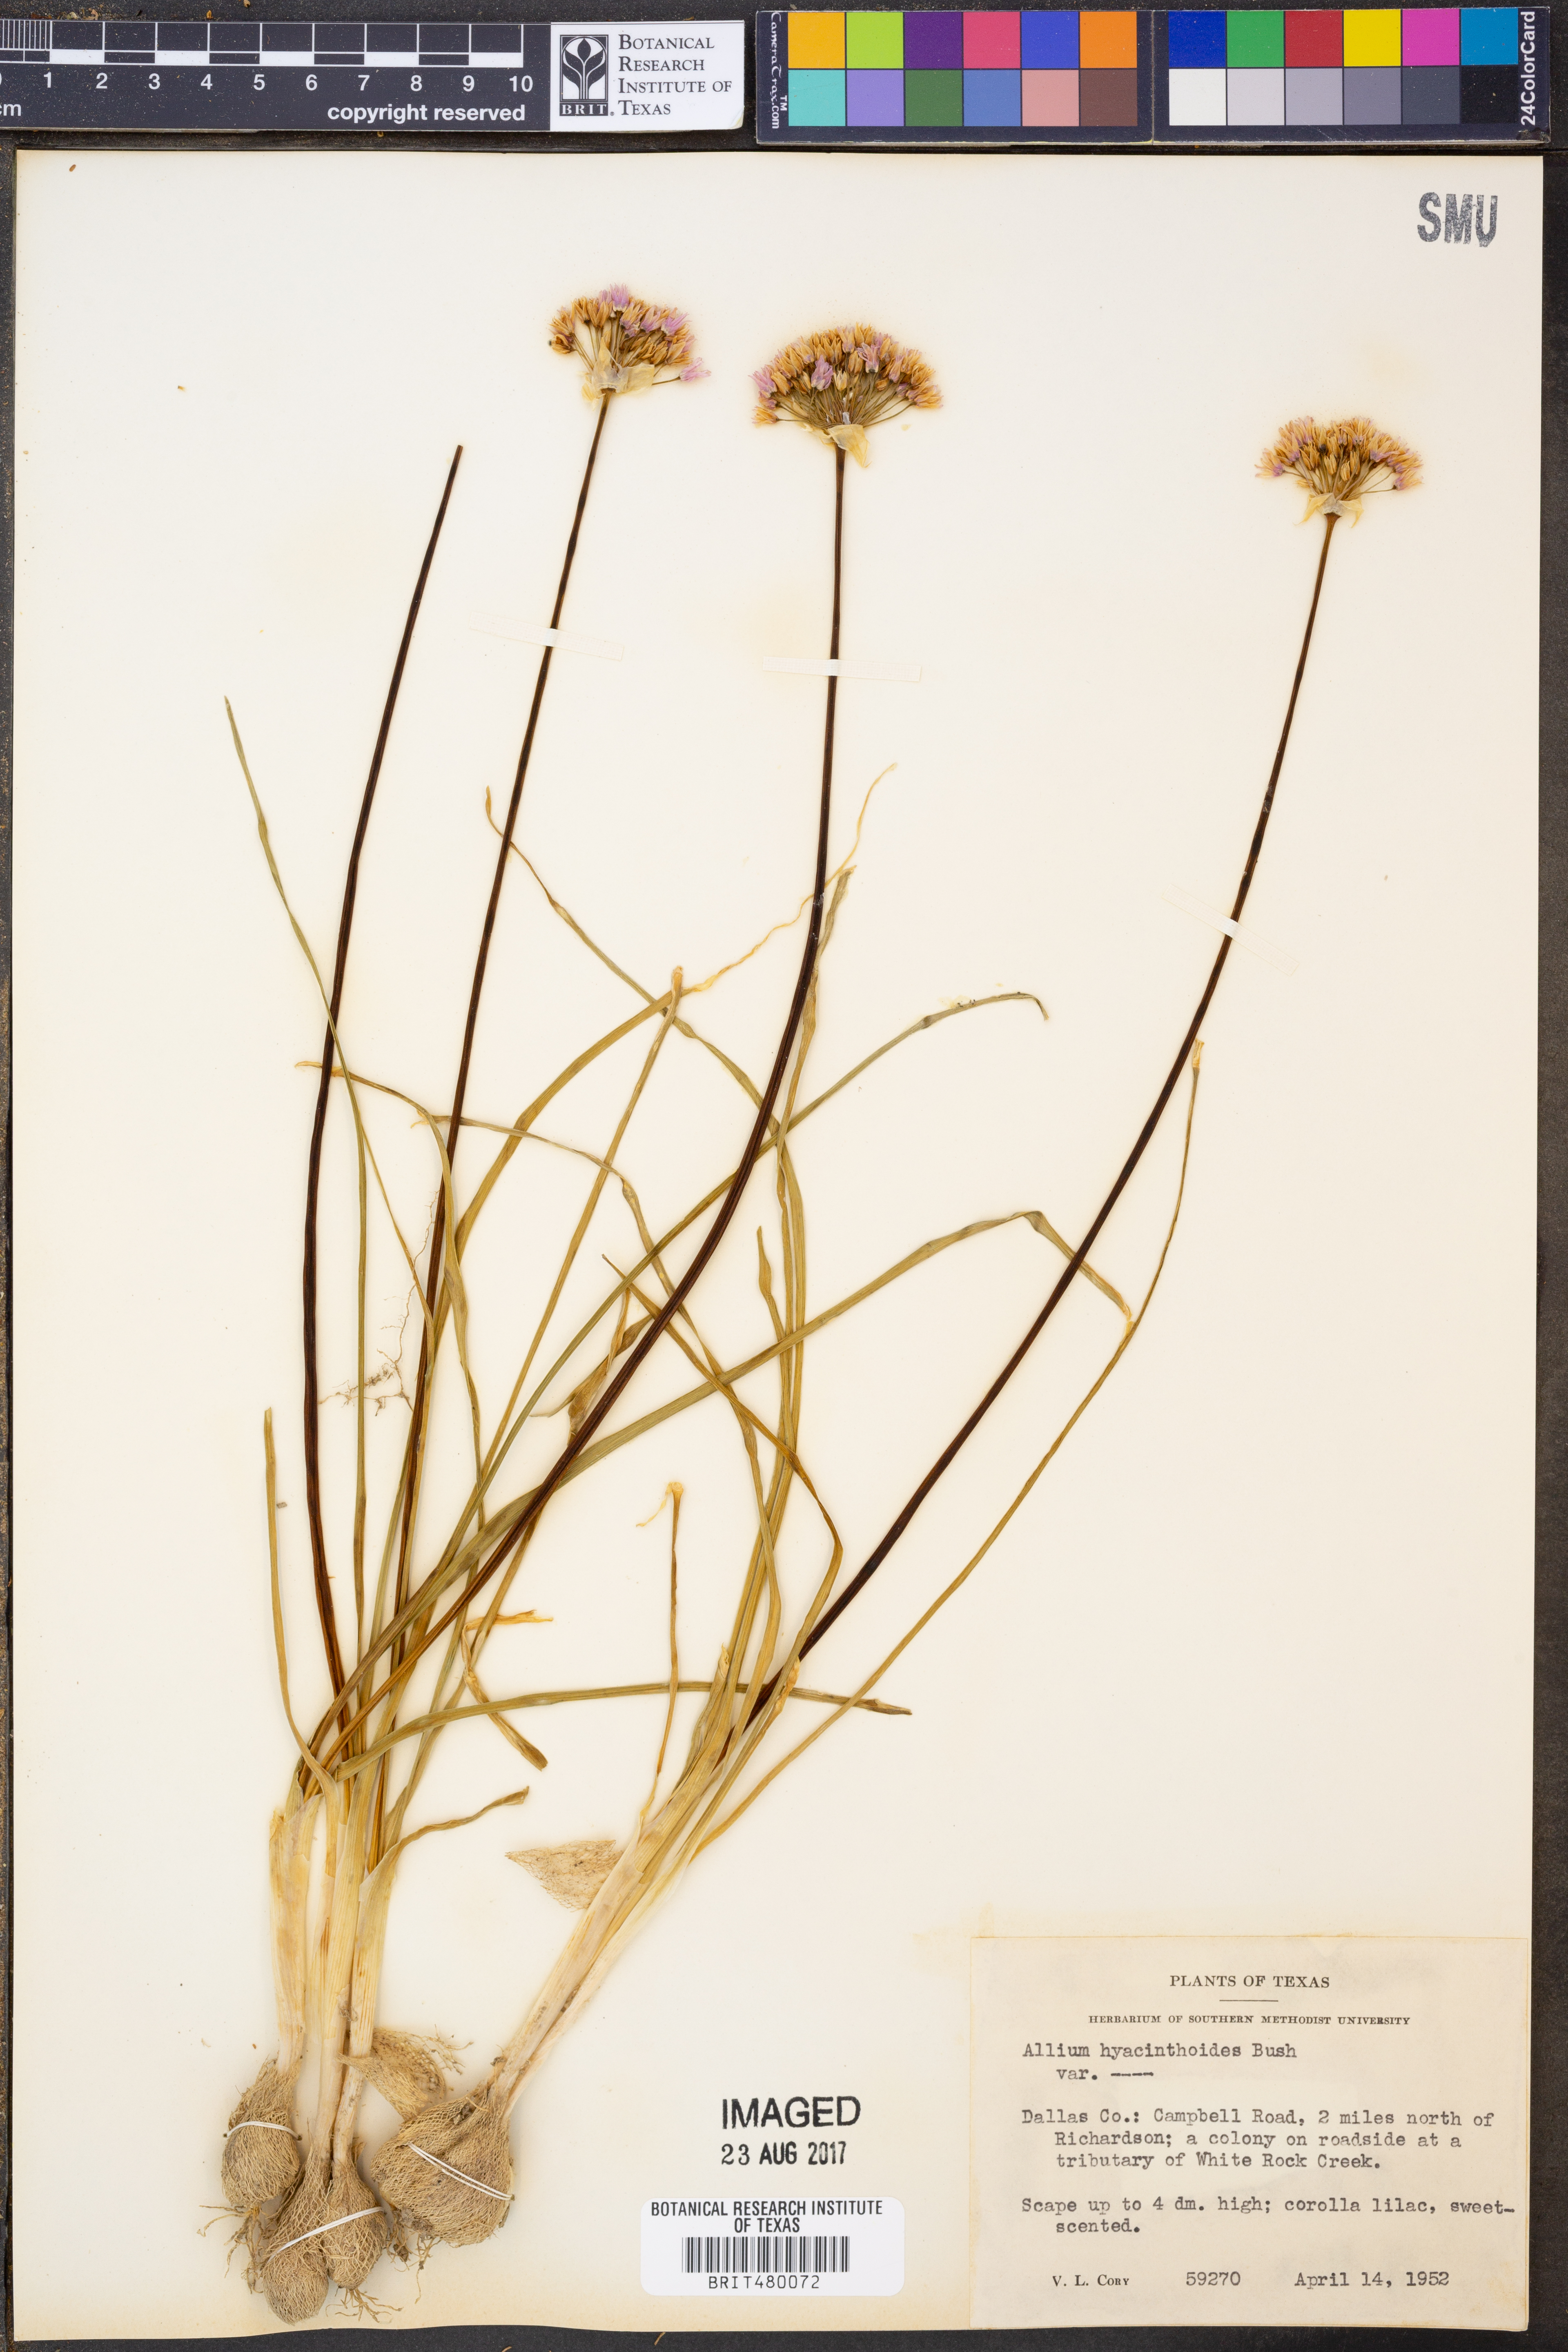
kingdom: Plantae
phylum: Tracheophyta
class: Liliopsida
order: Asparagales
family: Amaryllidaceae
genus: Allium
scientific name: Allium canadense
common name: Meadow garlic
